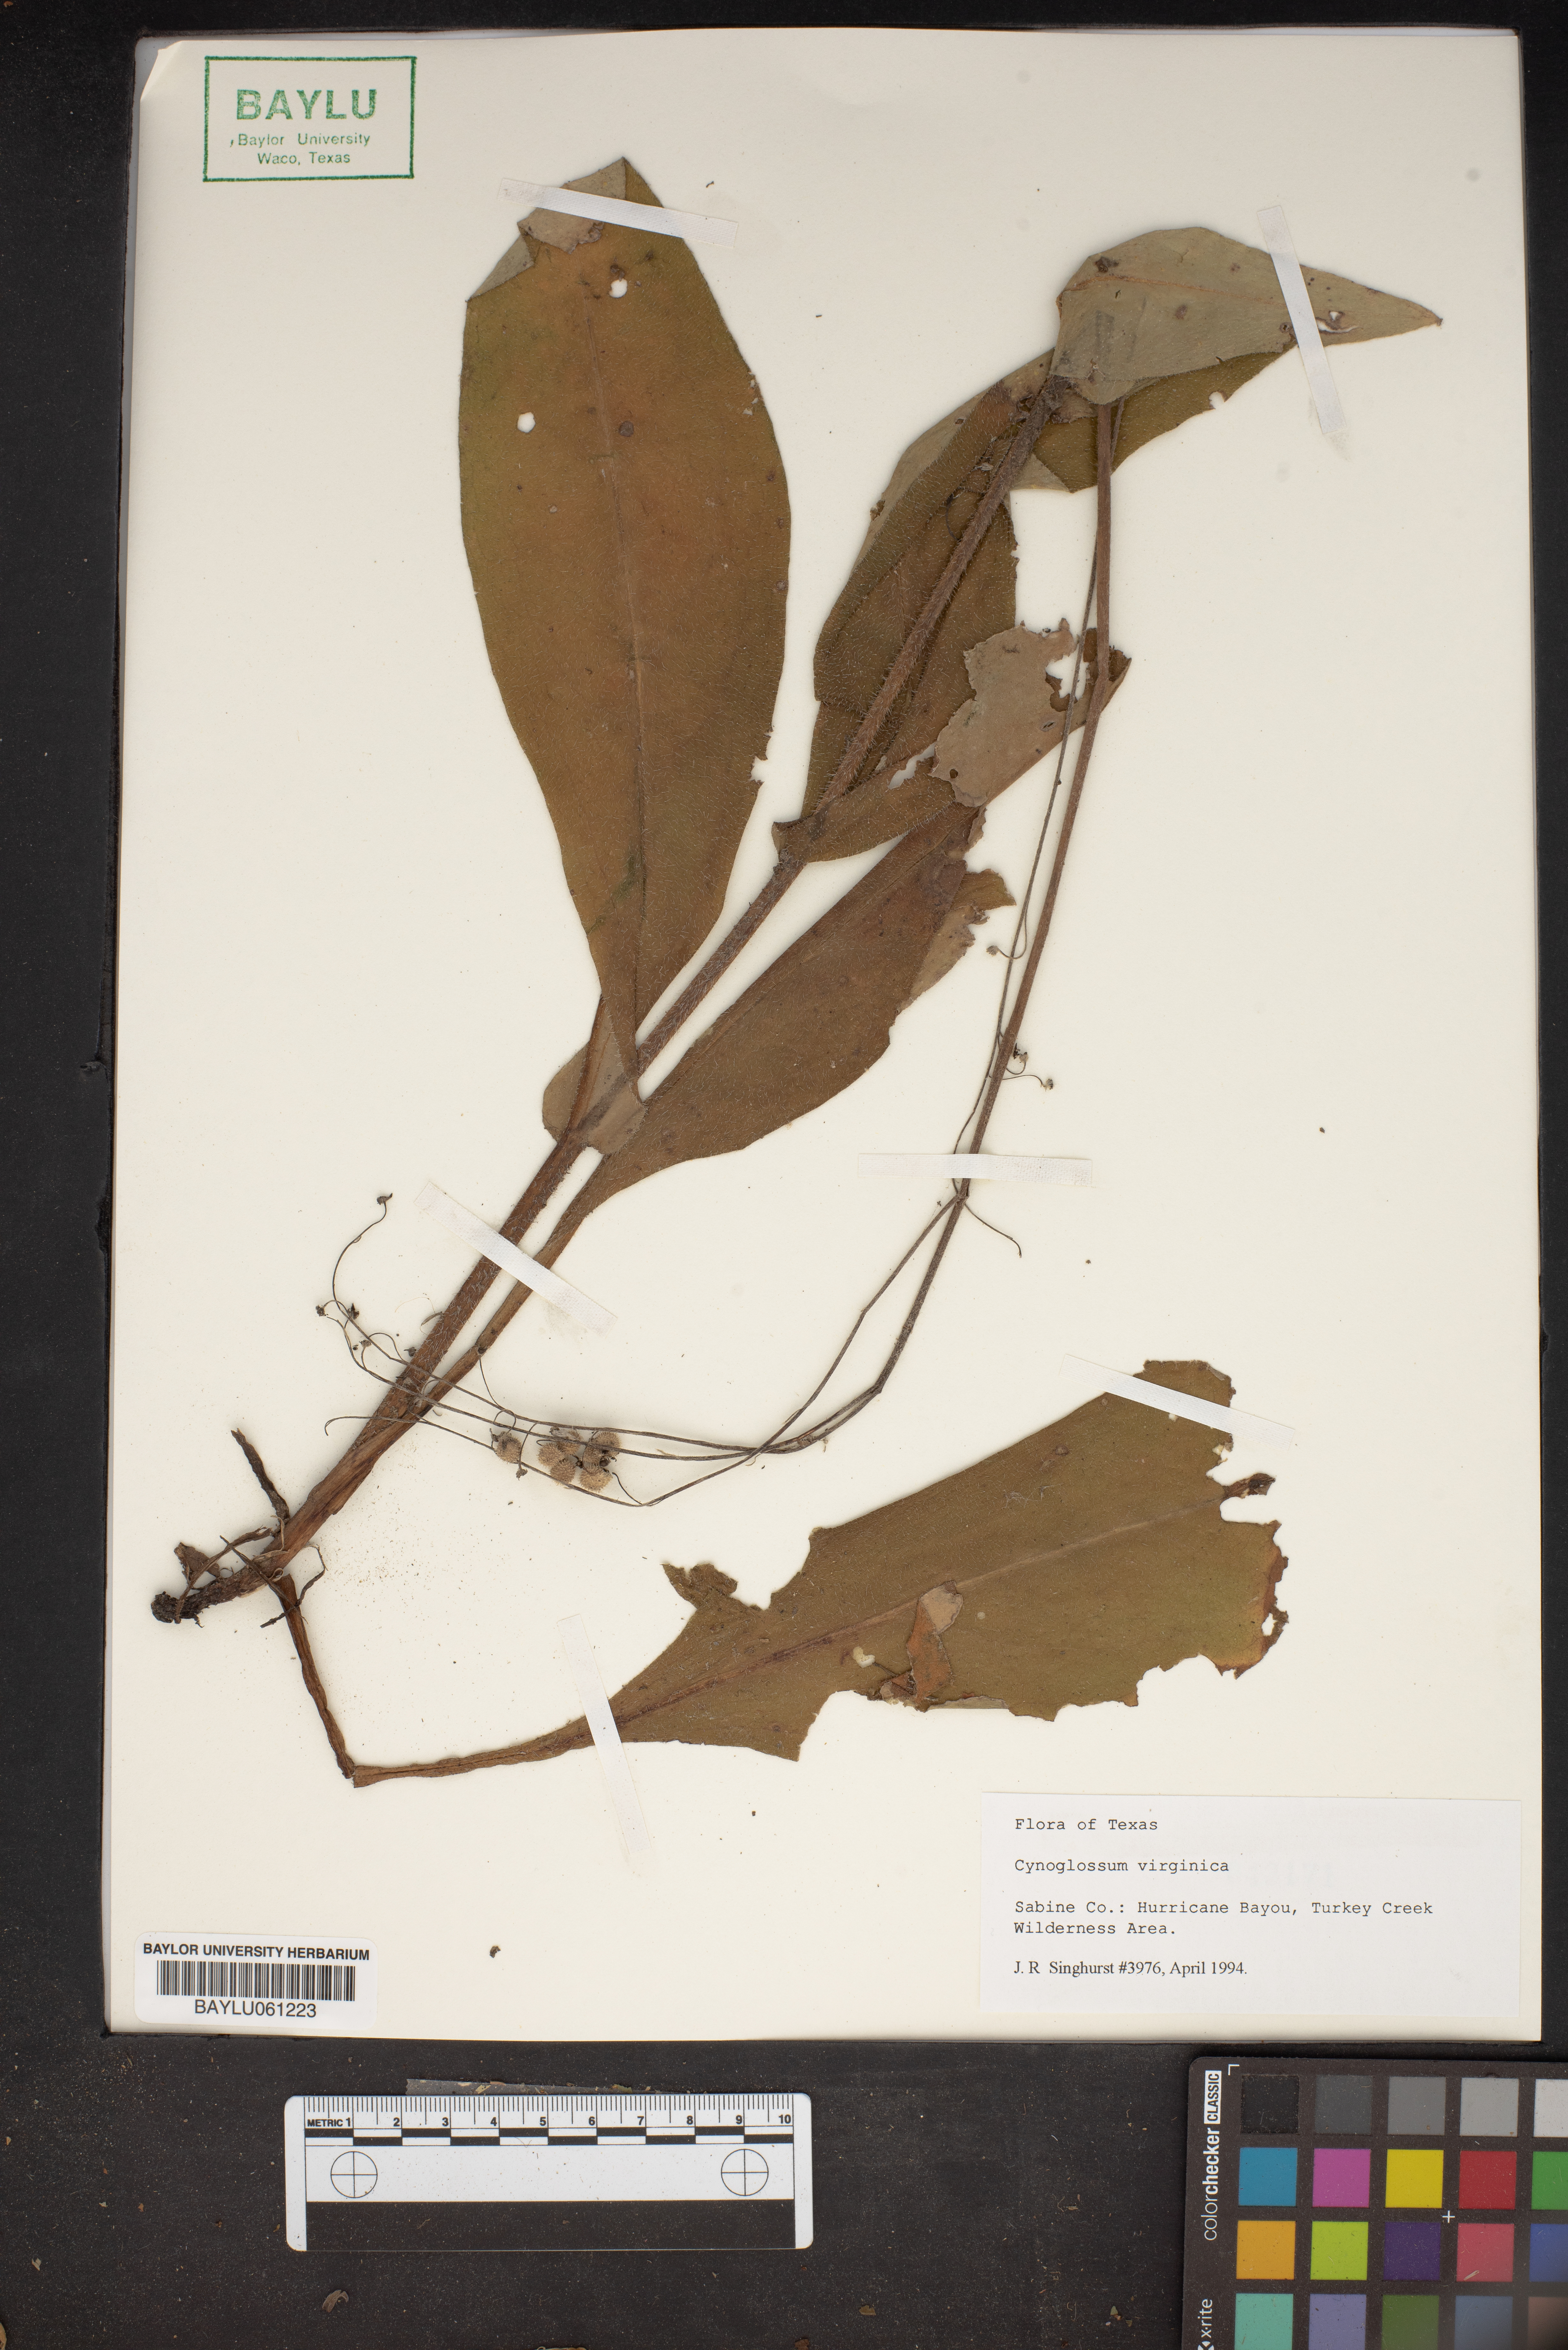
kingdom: Plantae
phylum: Tracheophyta
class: Magnoliopsida
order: Boraginales
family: Boraginaceae
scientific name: Boraginaceae
